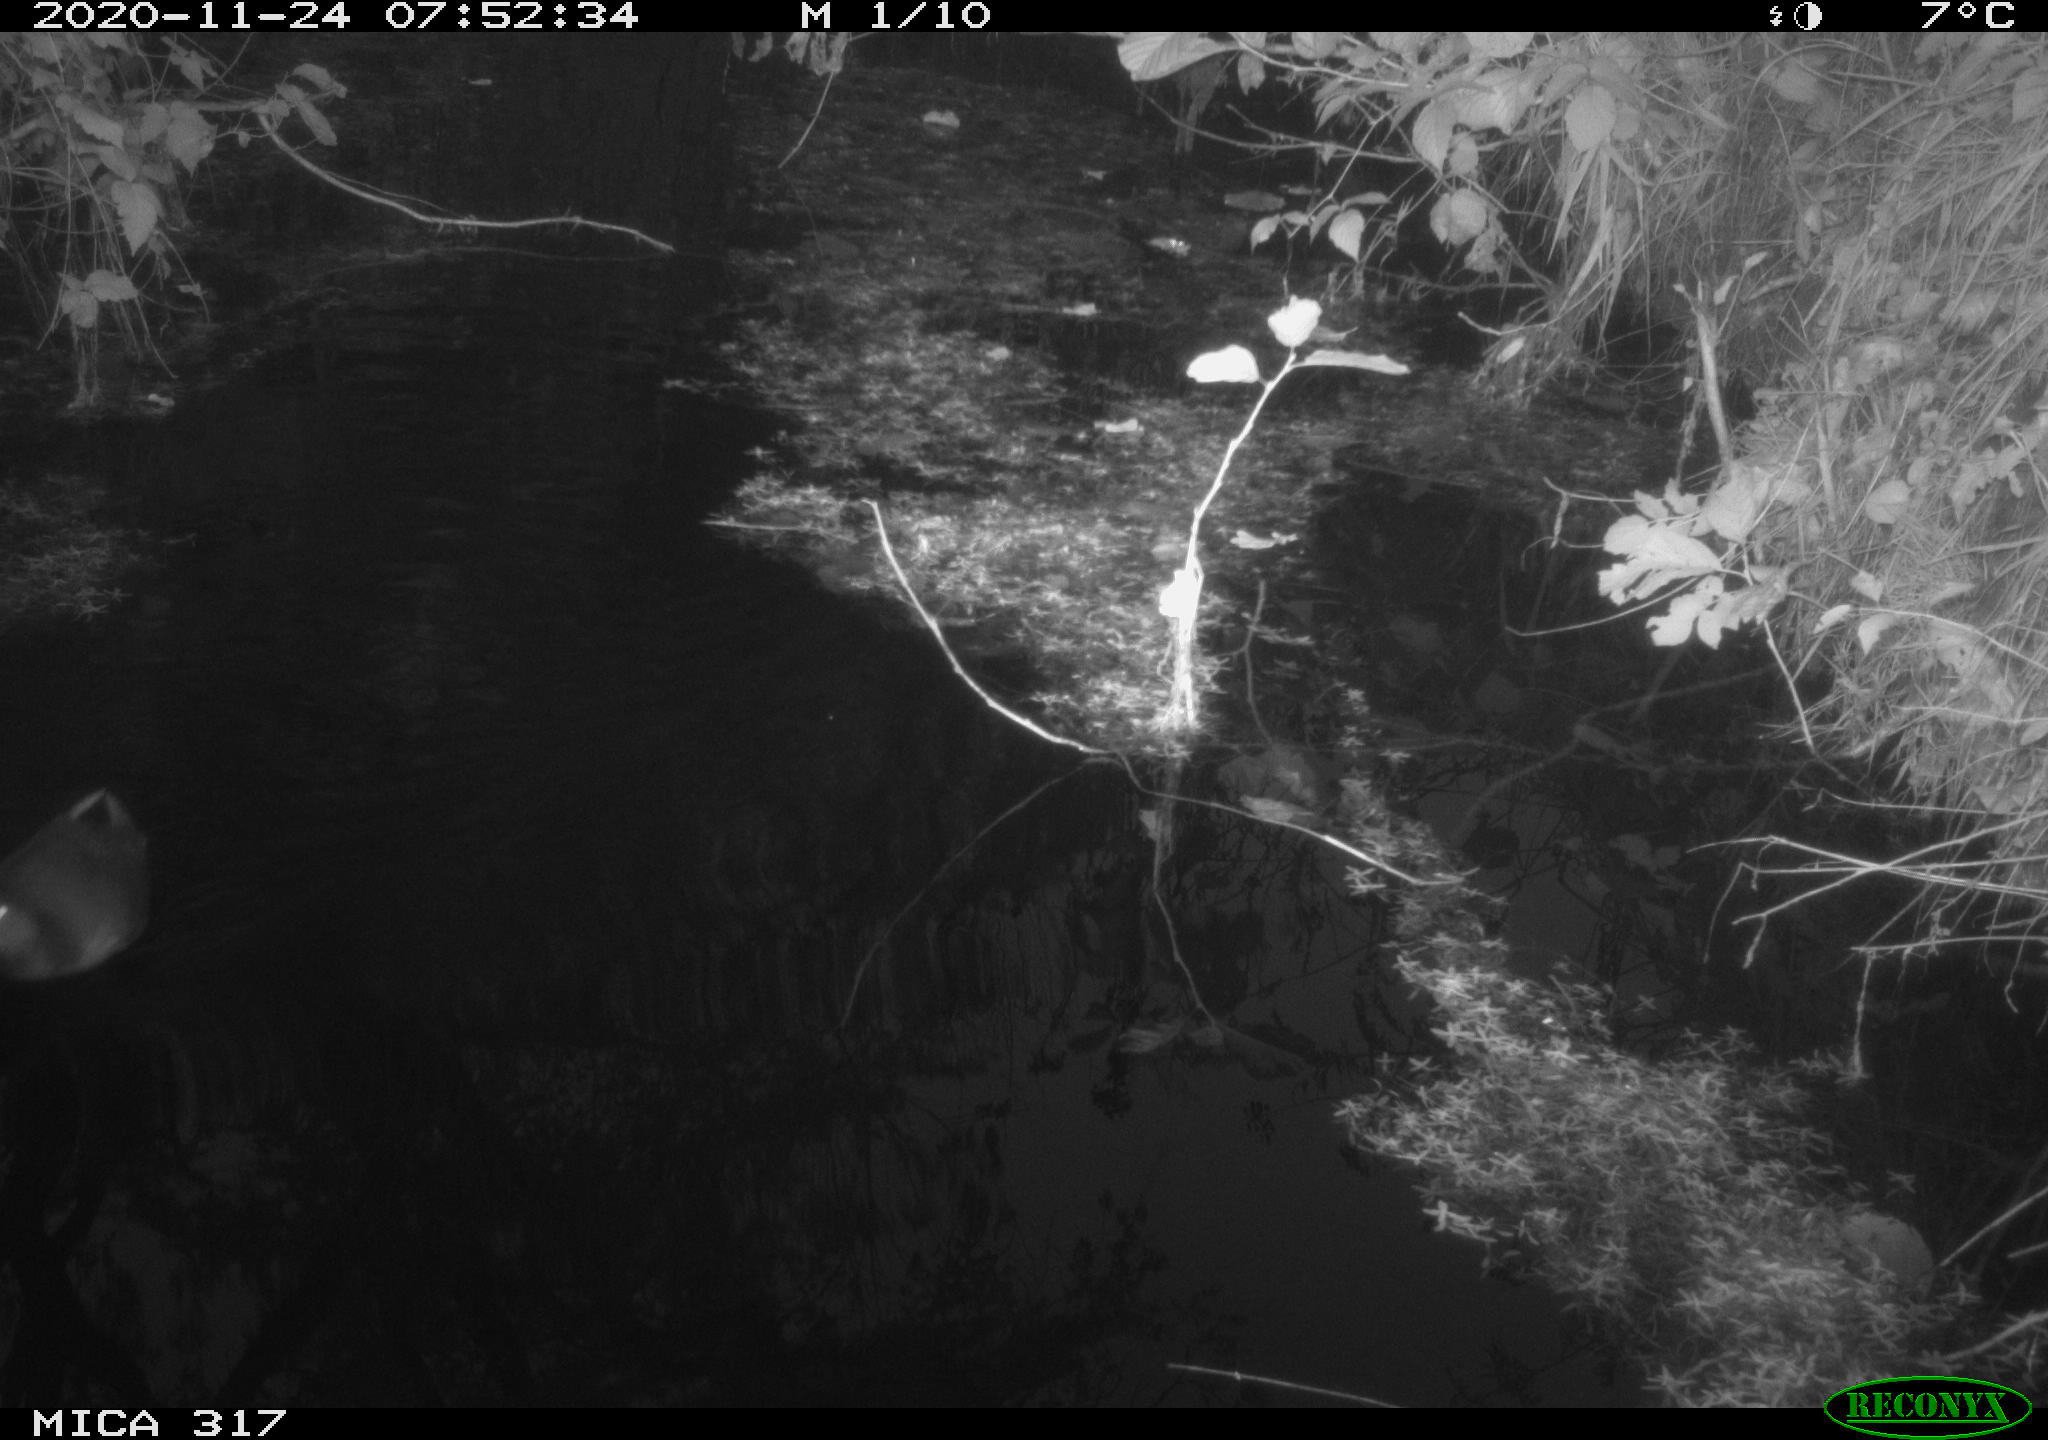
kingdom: Animalia
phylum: Chordata
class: Aves
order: Gruiformes
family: Rallidae
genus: Fulica
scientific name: Fulica atra
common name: Eurasian coot
